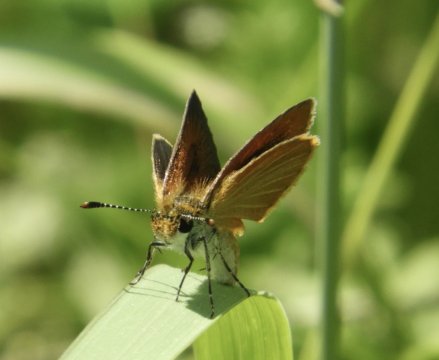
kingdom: Animalia
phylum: Arthropoda
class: Insecta
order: Lepidoptera
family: Hesperiidae
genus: Ancyloxypha
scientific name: Ancyloxypha numitor
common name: Least Skipper
